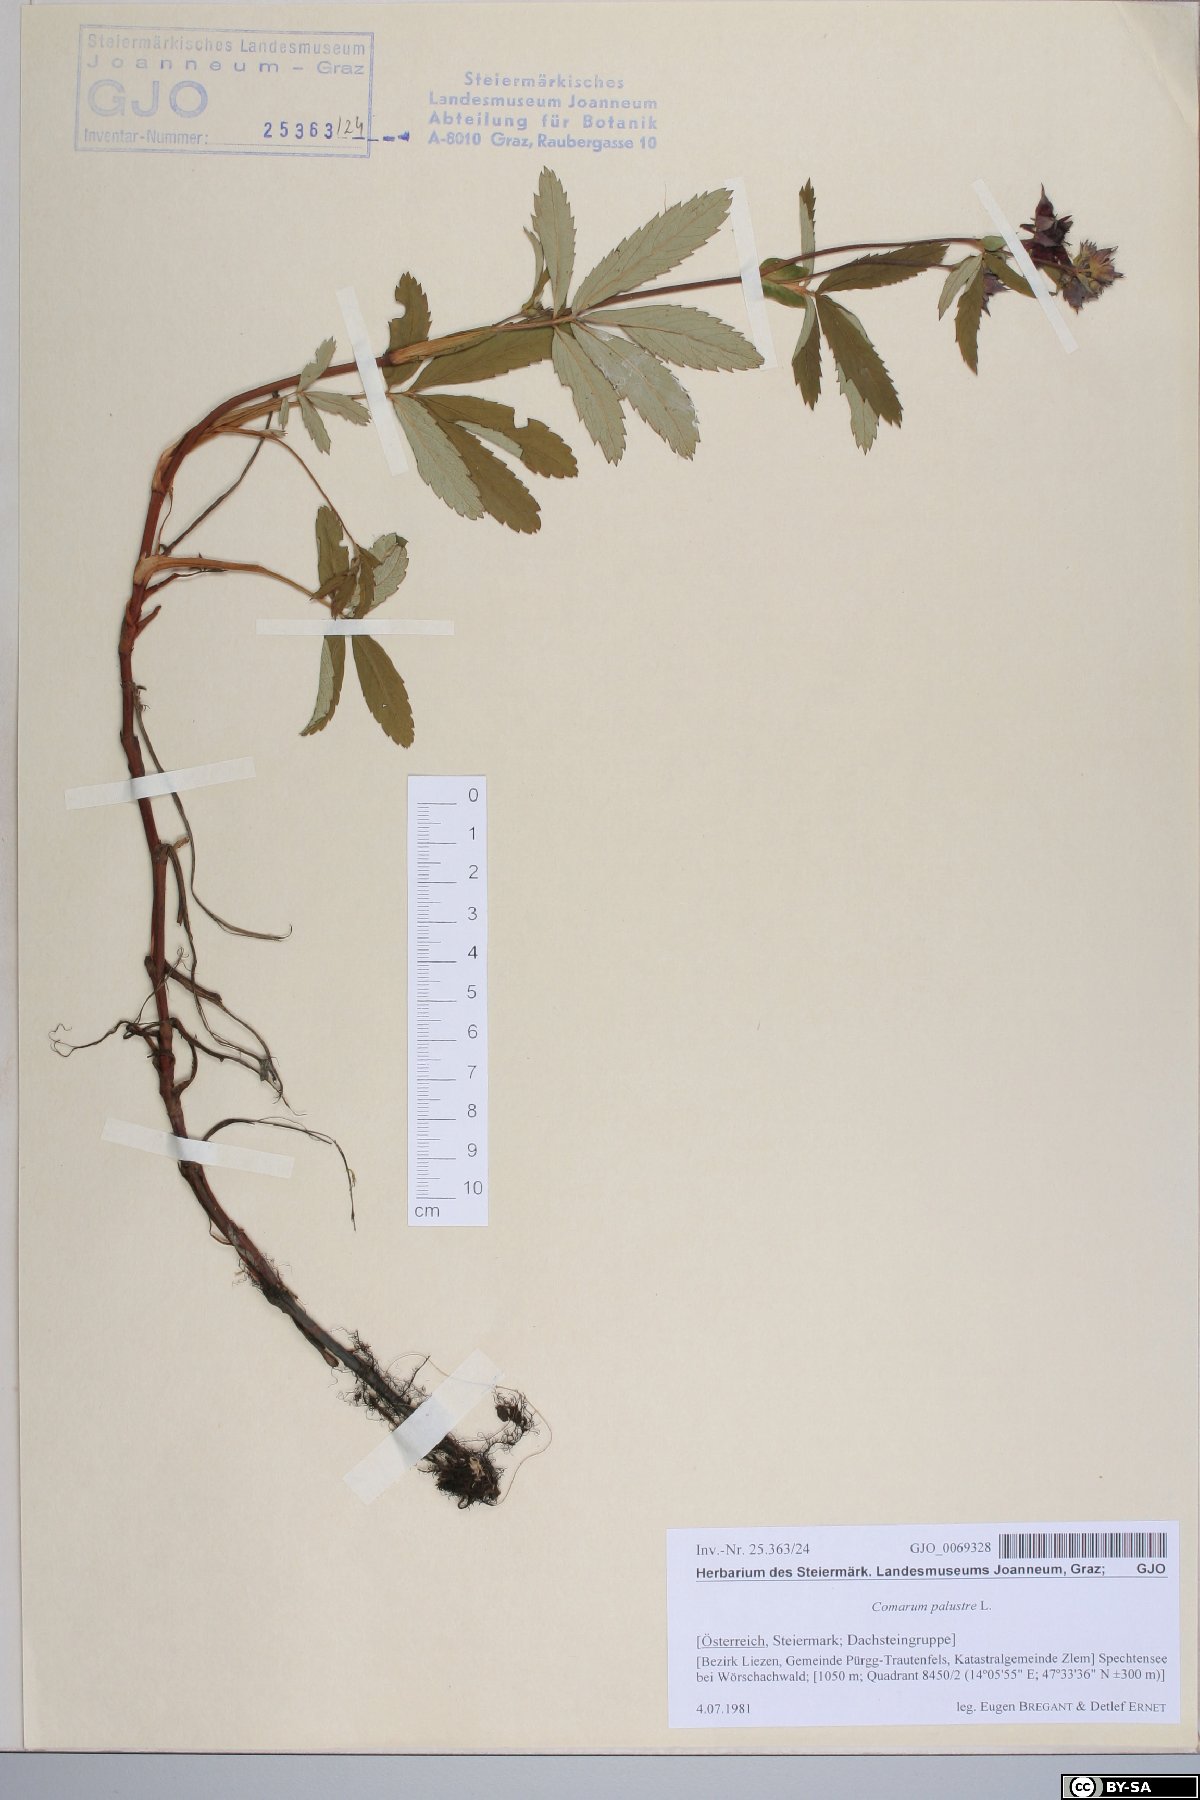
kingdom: Plantae
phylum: Tracheophyta
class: Magnoliopsida
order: Rosales
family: Rosaceae
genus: Comarum
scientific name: Comarum palustre
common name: Marsh cinquefoil
